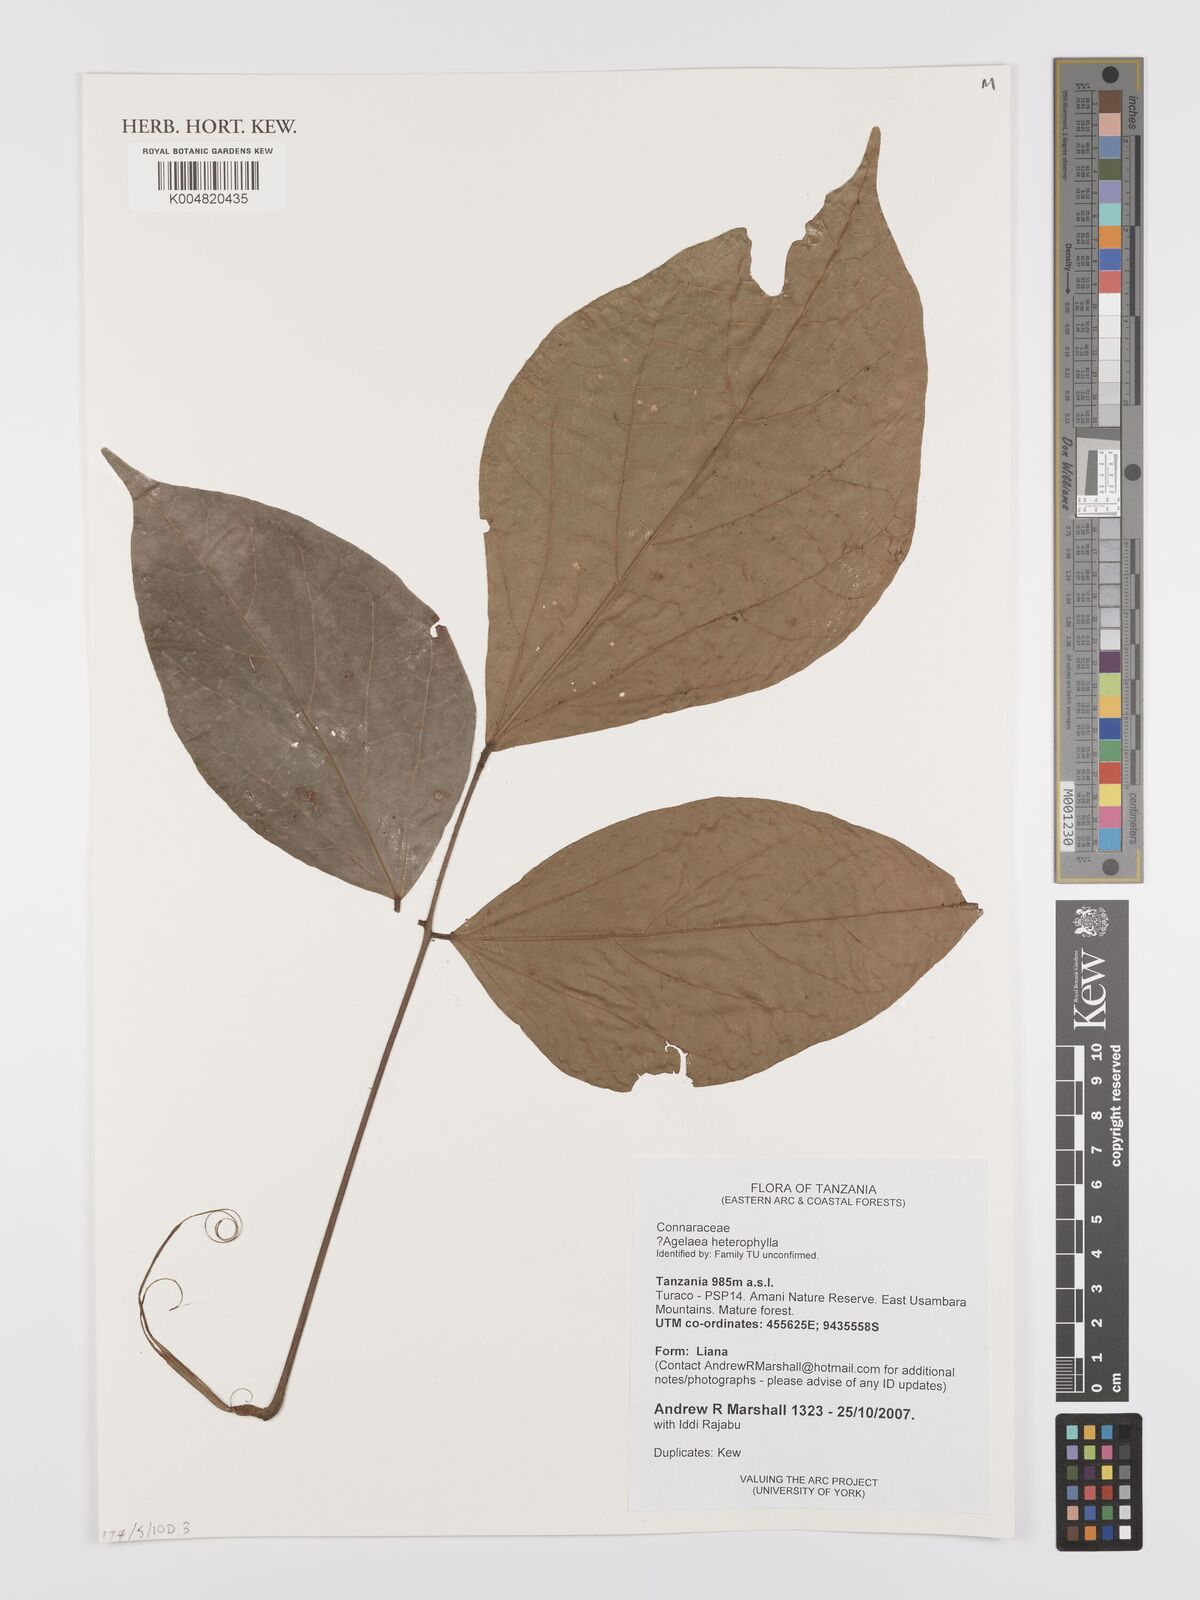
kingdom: Plantae
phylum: Tracheophyta
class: Magnoliopsida
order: Oxalidales
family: Connaraceae
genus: Agelaea
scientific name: Agelaea
